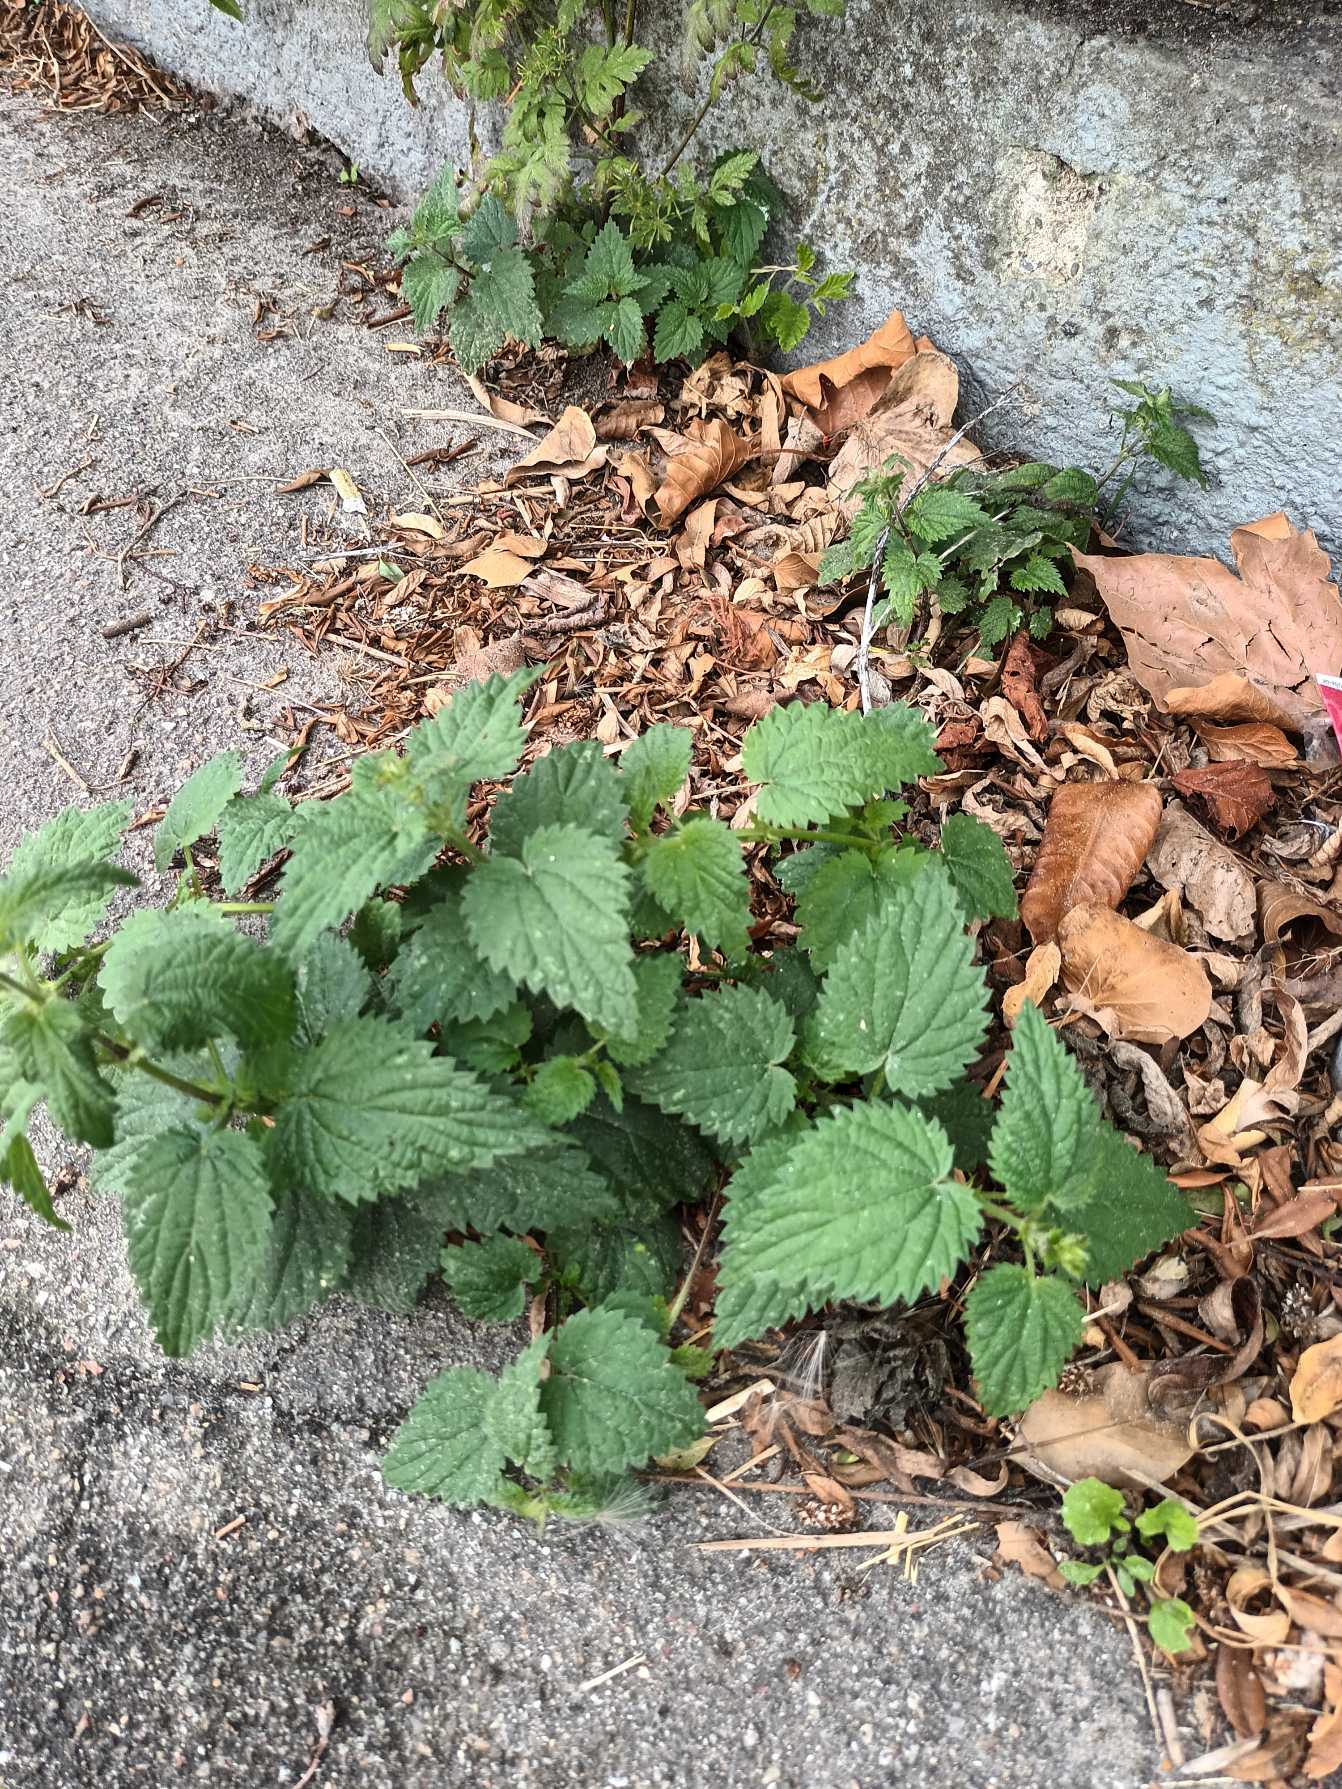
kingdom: Plantae
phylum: Tracheophyta
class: Magnoliopsida
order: Rosales
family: Urticaceae
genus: Urtica
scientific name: Urtica dioica
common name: Stor nælde
